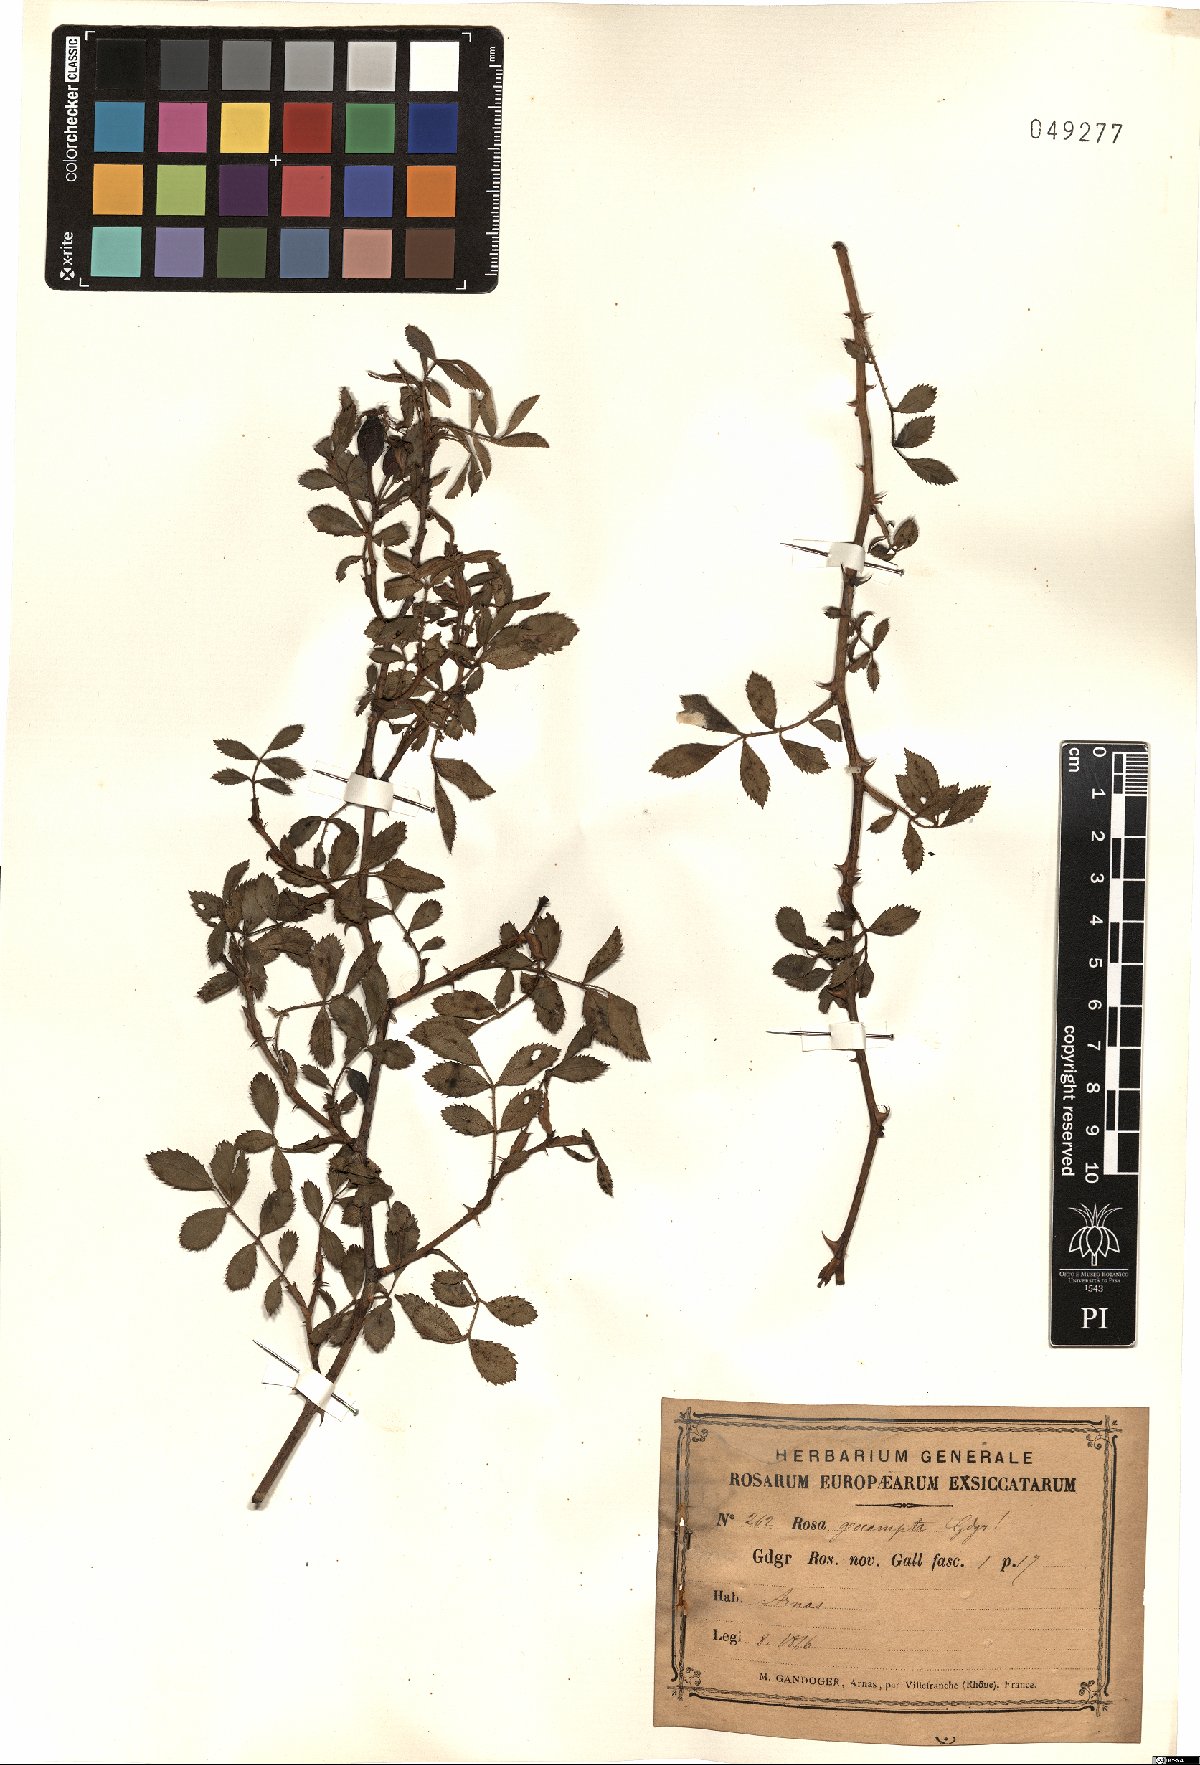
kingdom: Plantae
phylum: Tracheophyta
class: Magnoliopsida
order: Rosales
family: Rosaceae
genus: Rosa
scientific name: Rosa geocampta
